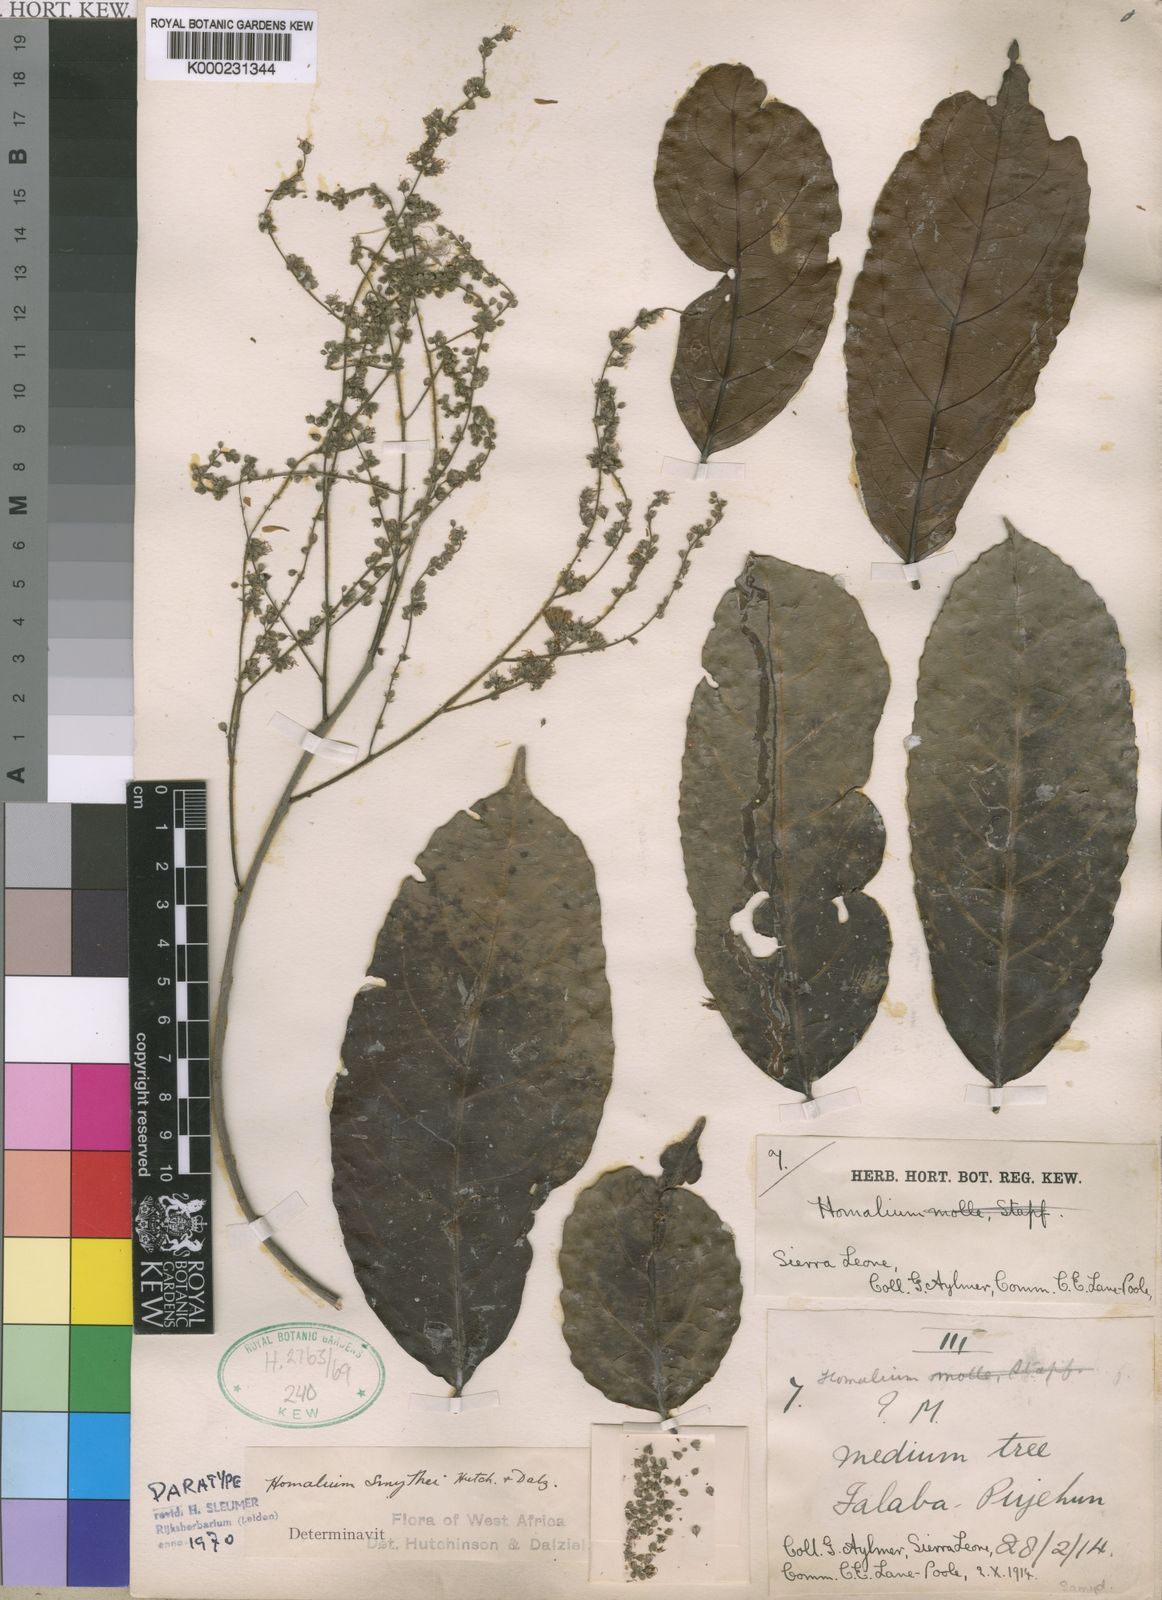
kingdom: Plantae
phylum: Tracheophyta
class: Magnoliopsida
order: Malpighiales
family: Salicaceae
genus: Homalium
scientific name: Homalium smythei
